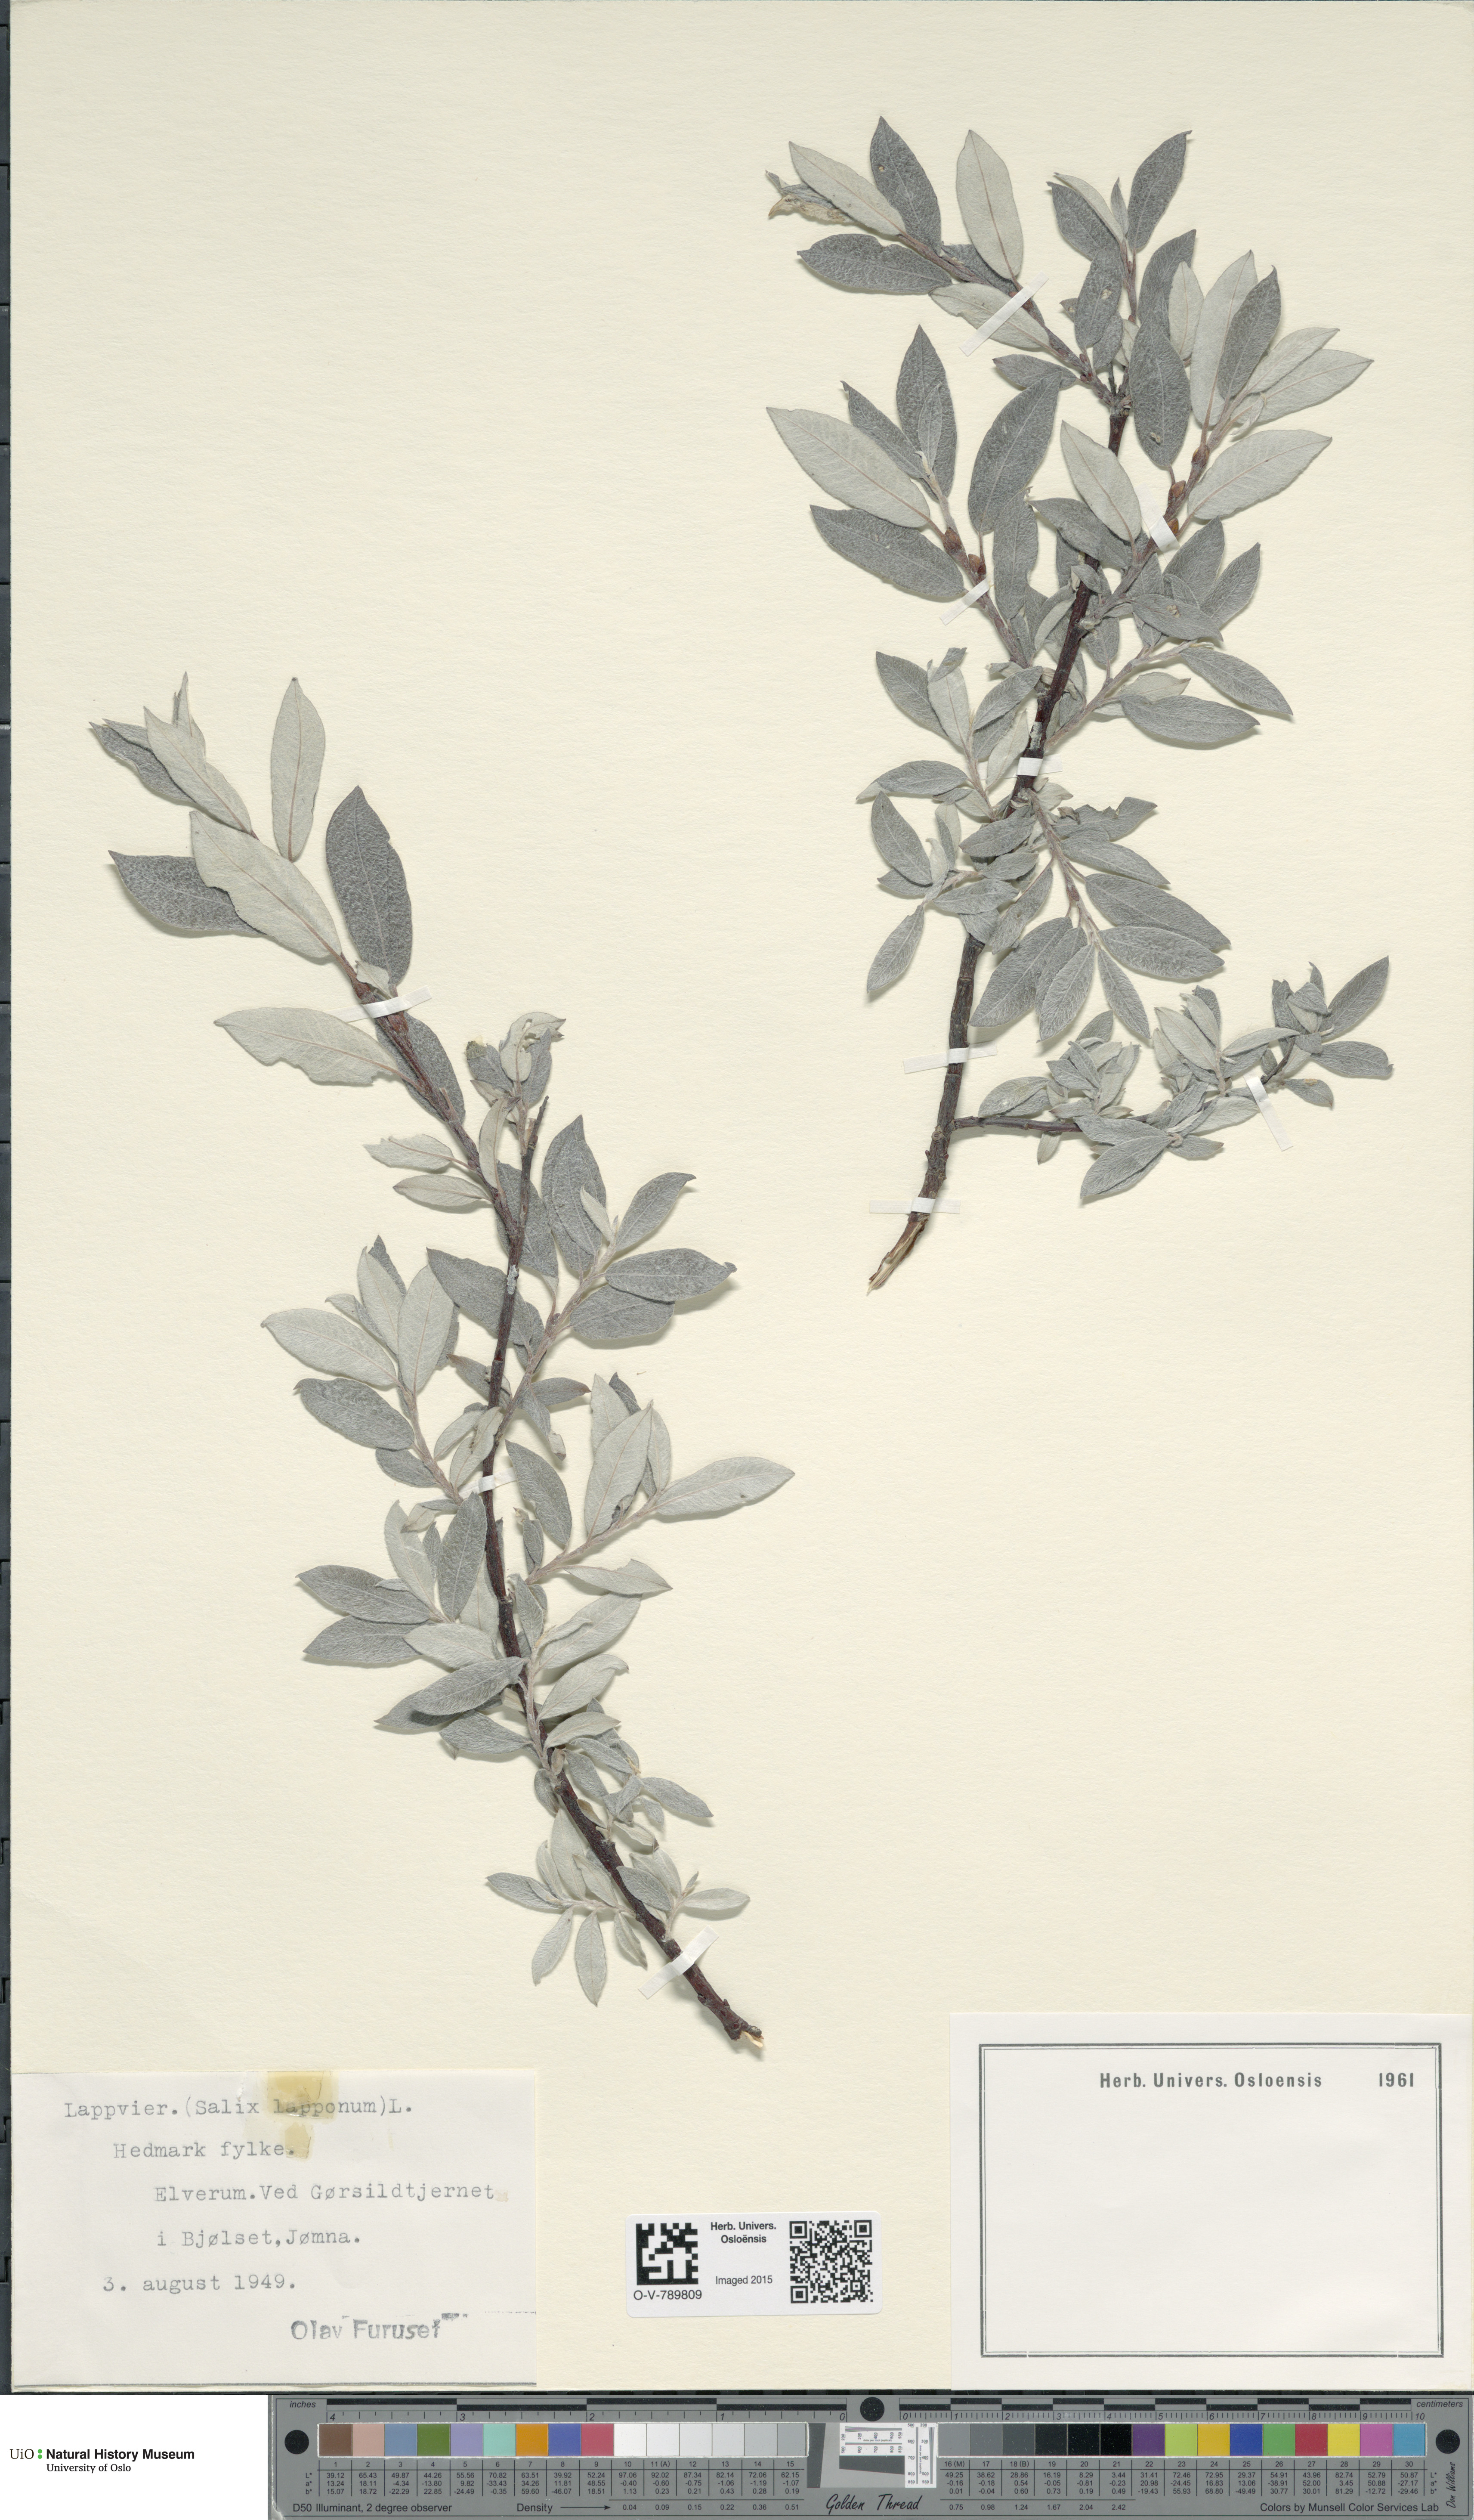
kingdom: Plantae
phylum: Tracheophyta
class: Magnoliopsida
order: Malpighiales
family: Salicaceae
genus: Salix
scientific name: Salix lapponum
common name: Downy willow
